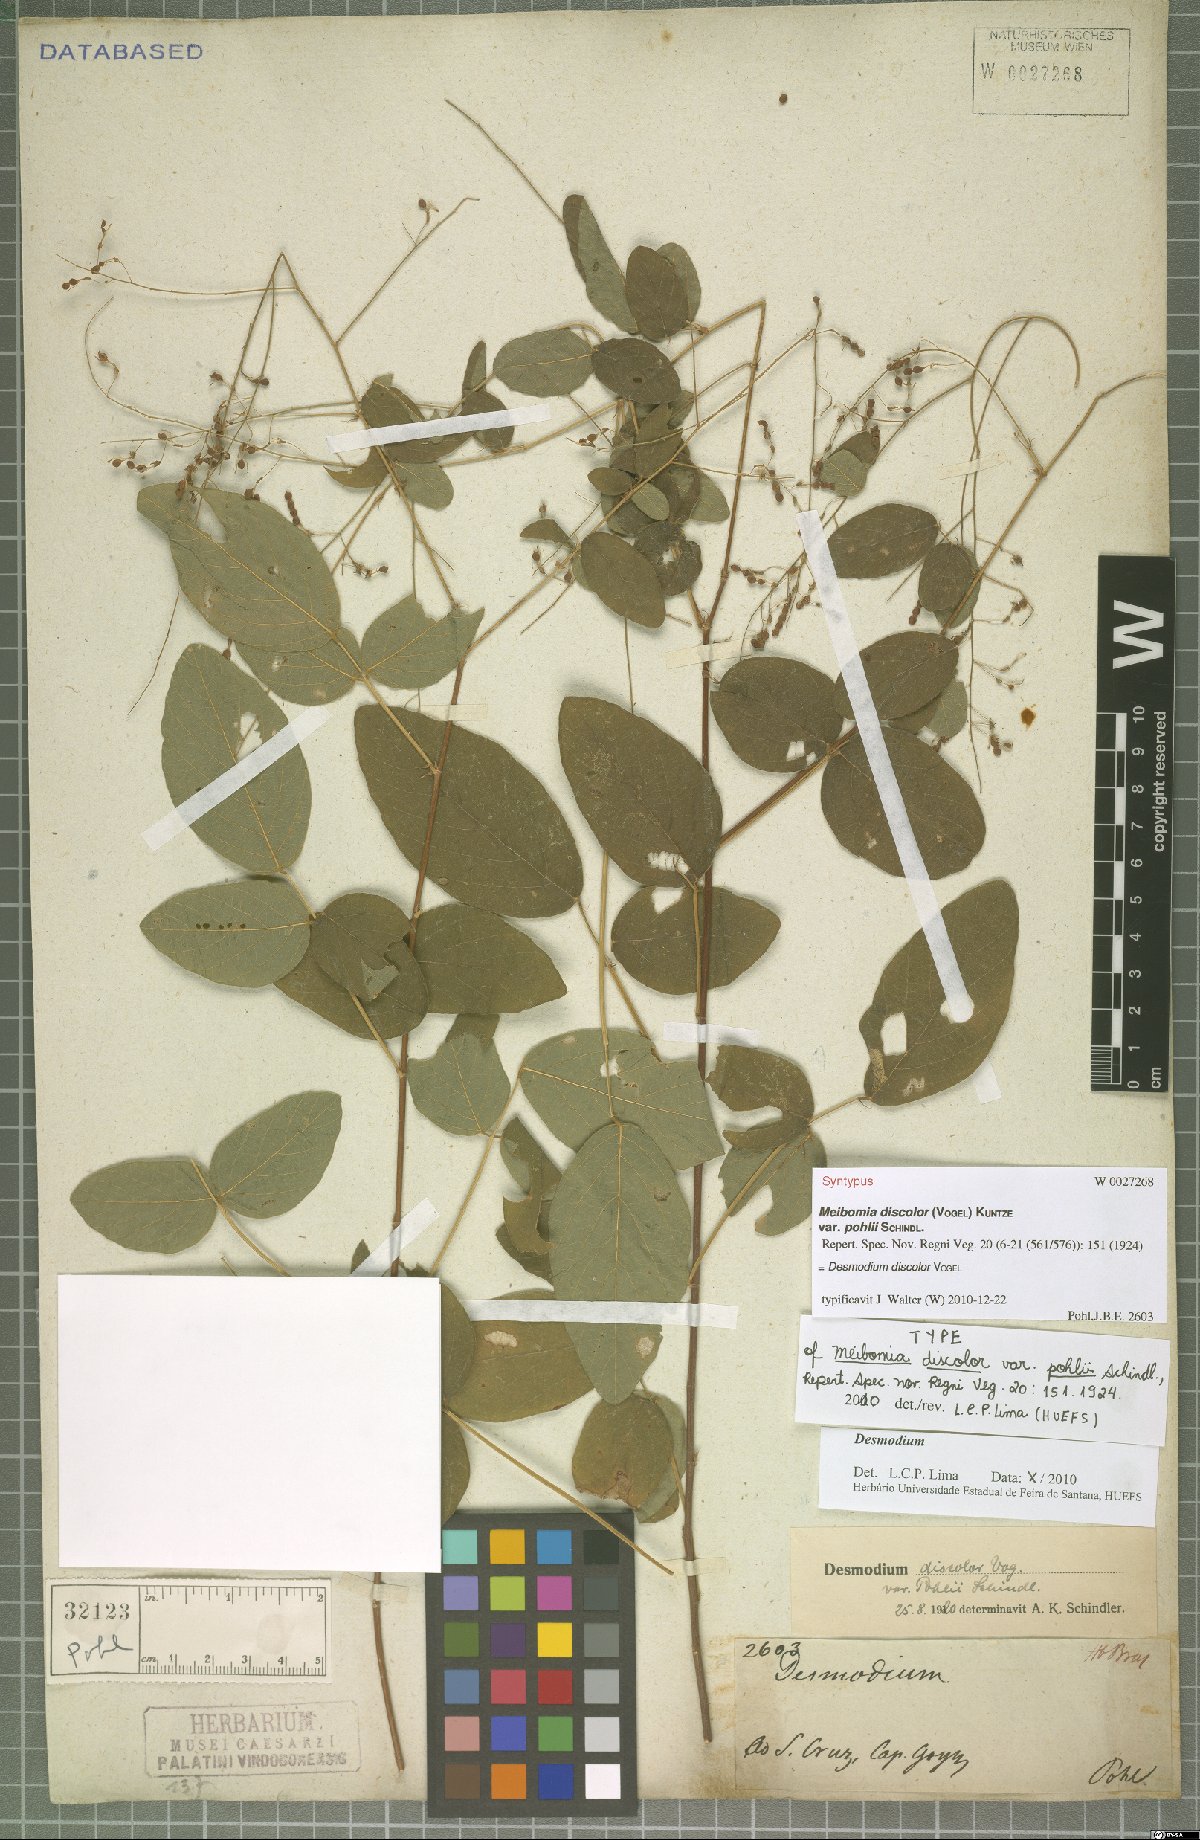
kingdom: Plantae
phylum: Tracheophyta
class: Magnoliopsida
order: Fabales
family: Fabaceae
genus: Desmodium
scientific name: Desmodium subsecundum
